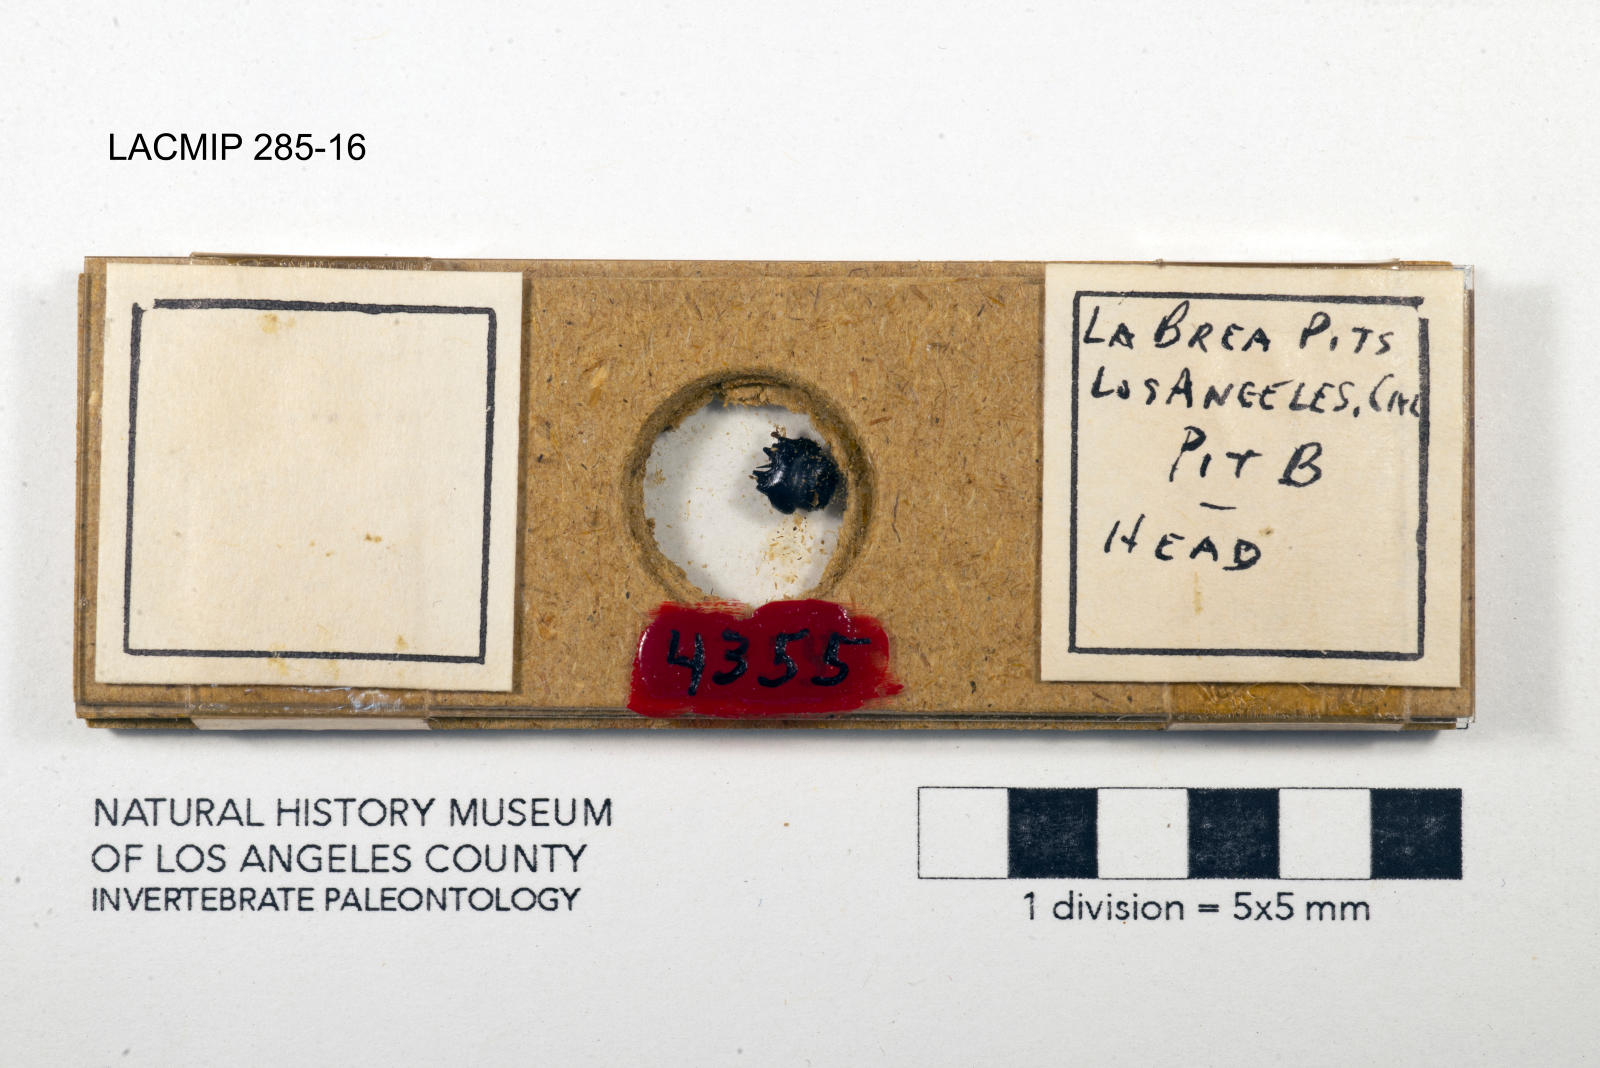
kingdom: Animalia
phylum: Arthropoda
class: Insecta
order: Coleoptera
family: Staphylinidae
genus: Nicrophorus
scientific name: Nicrophorus marginatus
